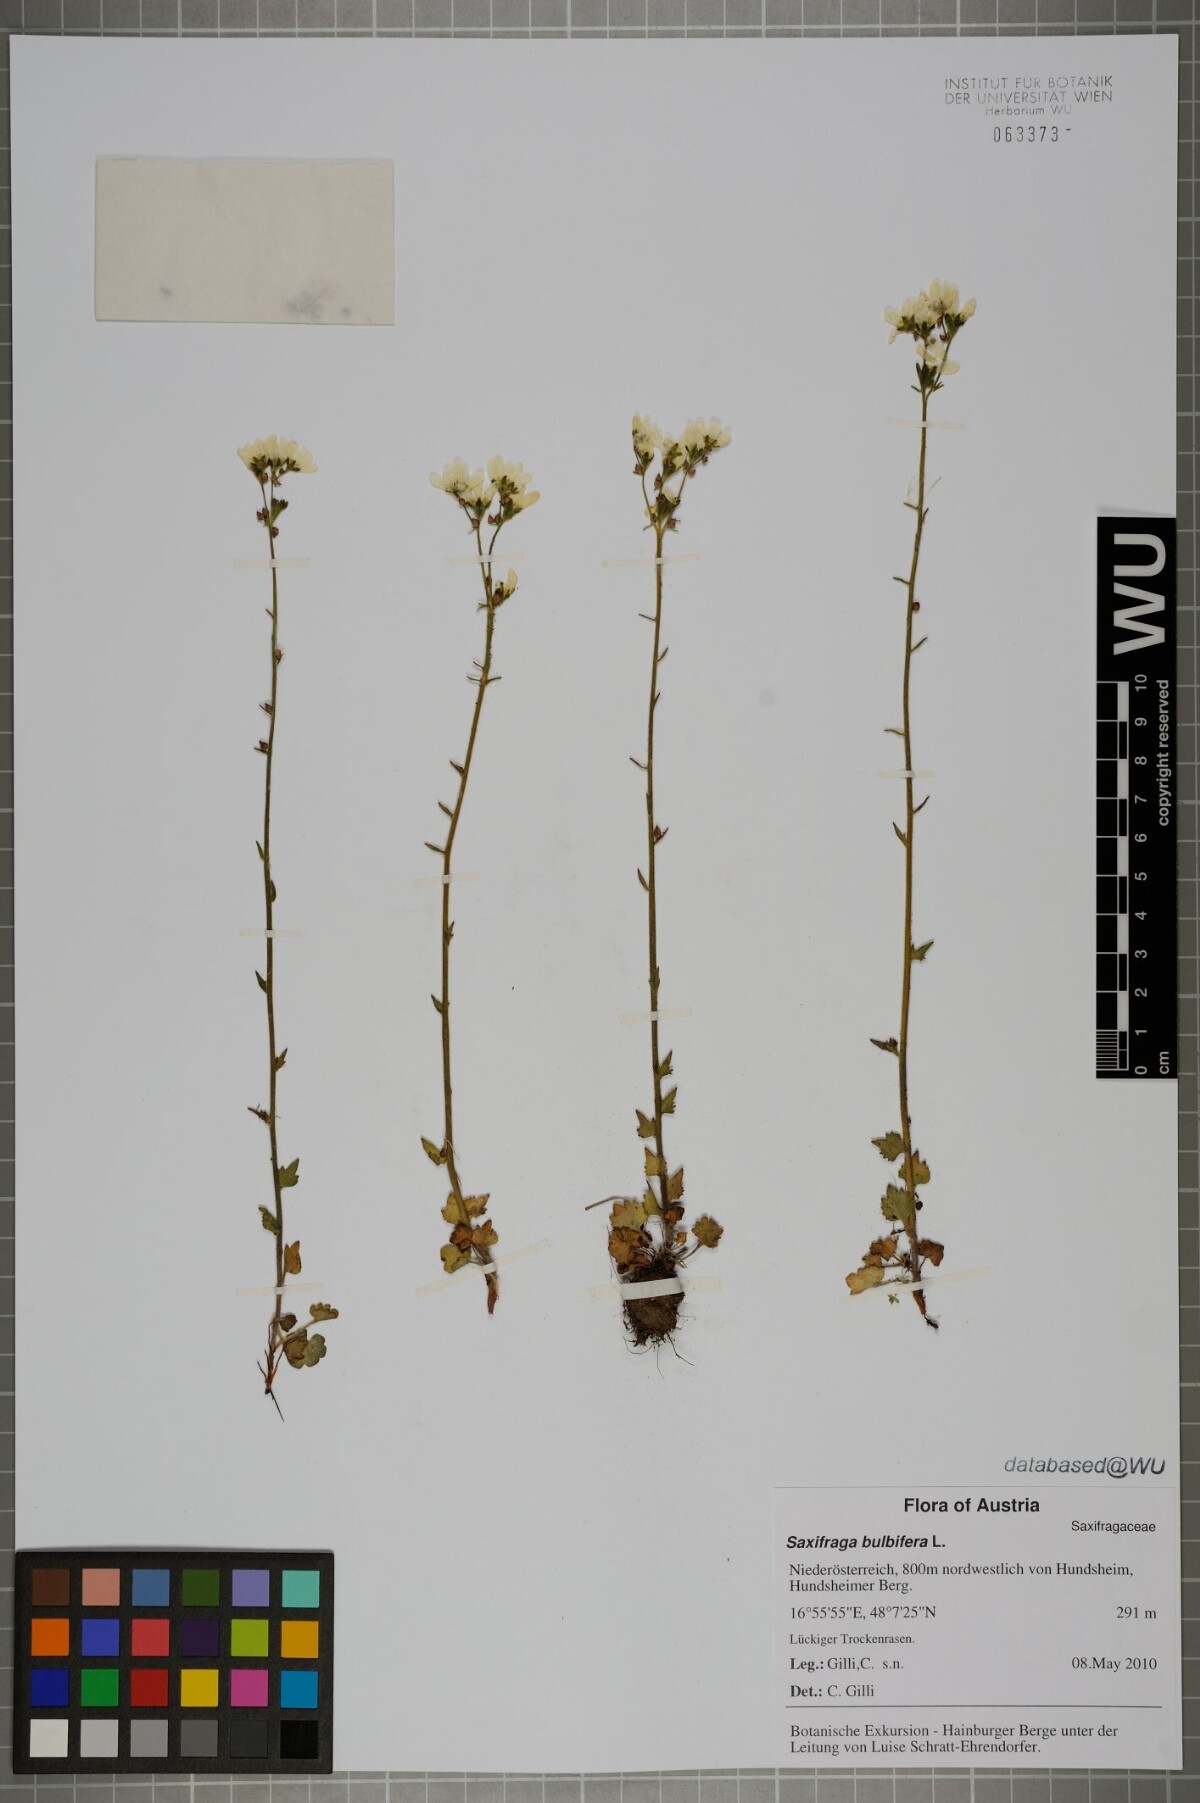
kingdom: Plantae
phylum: Tracheophyta
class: Magnoliopsida
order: Saxifragales
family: Saxifragaceae
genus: Saxifraga
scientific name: Saxifraga bulbifera
